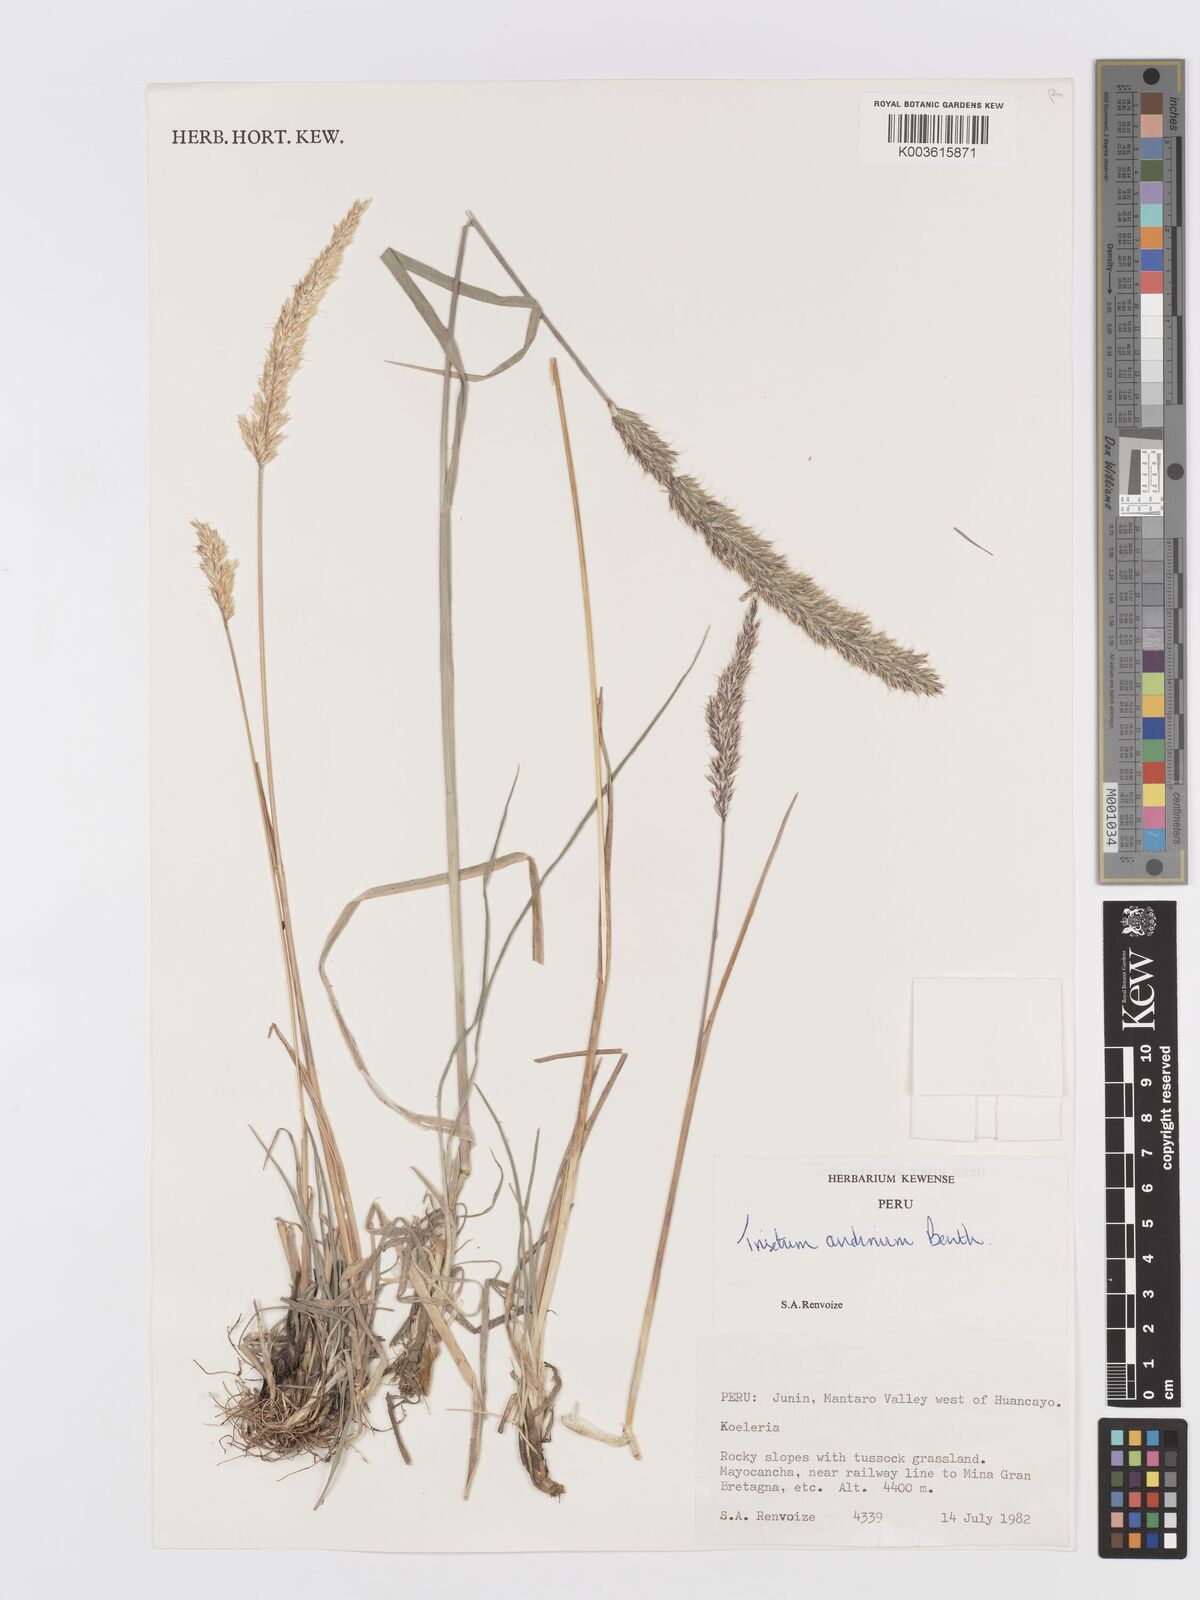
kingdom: Plantae
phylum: Tracheophyta
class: Liliopsida
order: Poales
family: Poaceae
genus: Koeleria
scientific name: Koeleria spicata
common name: Mountain trisetum
